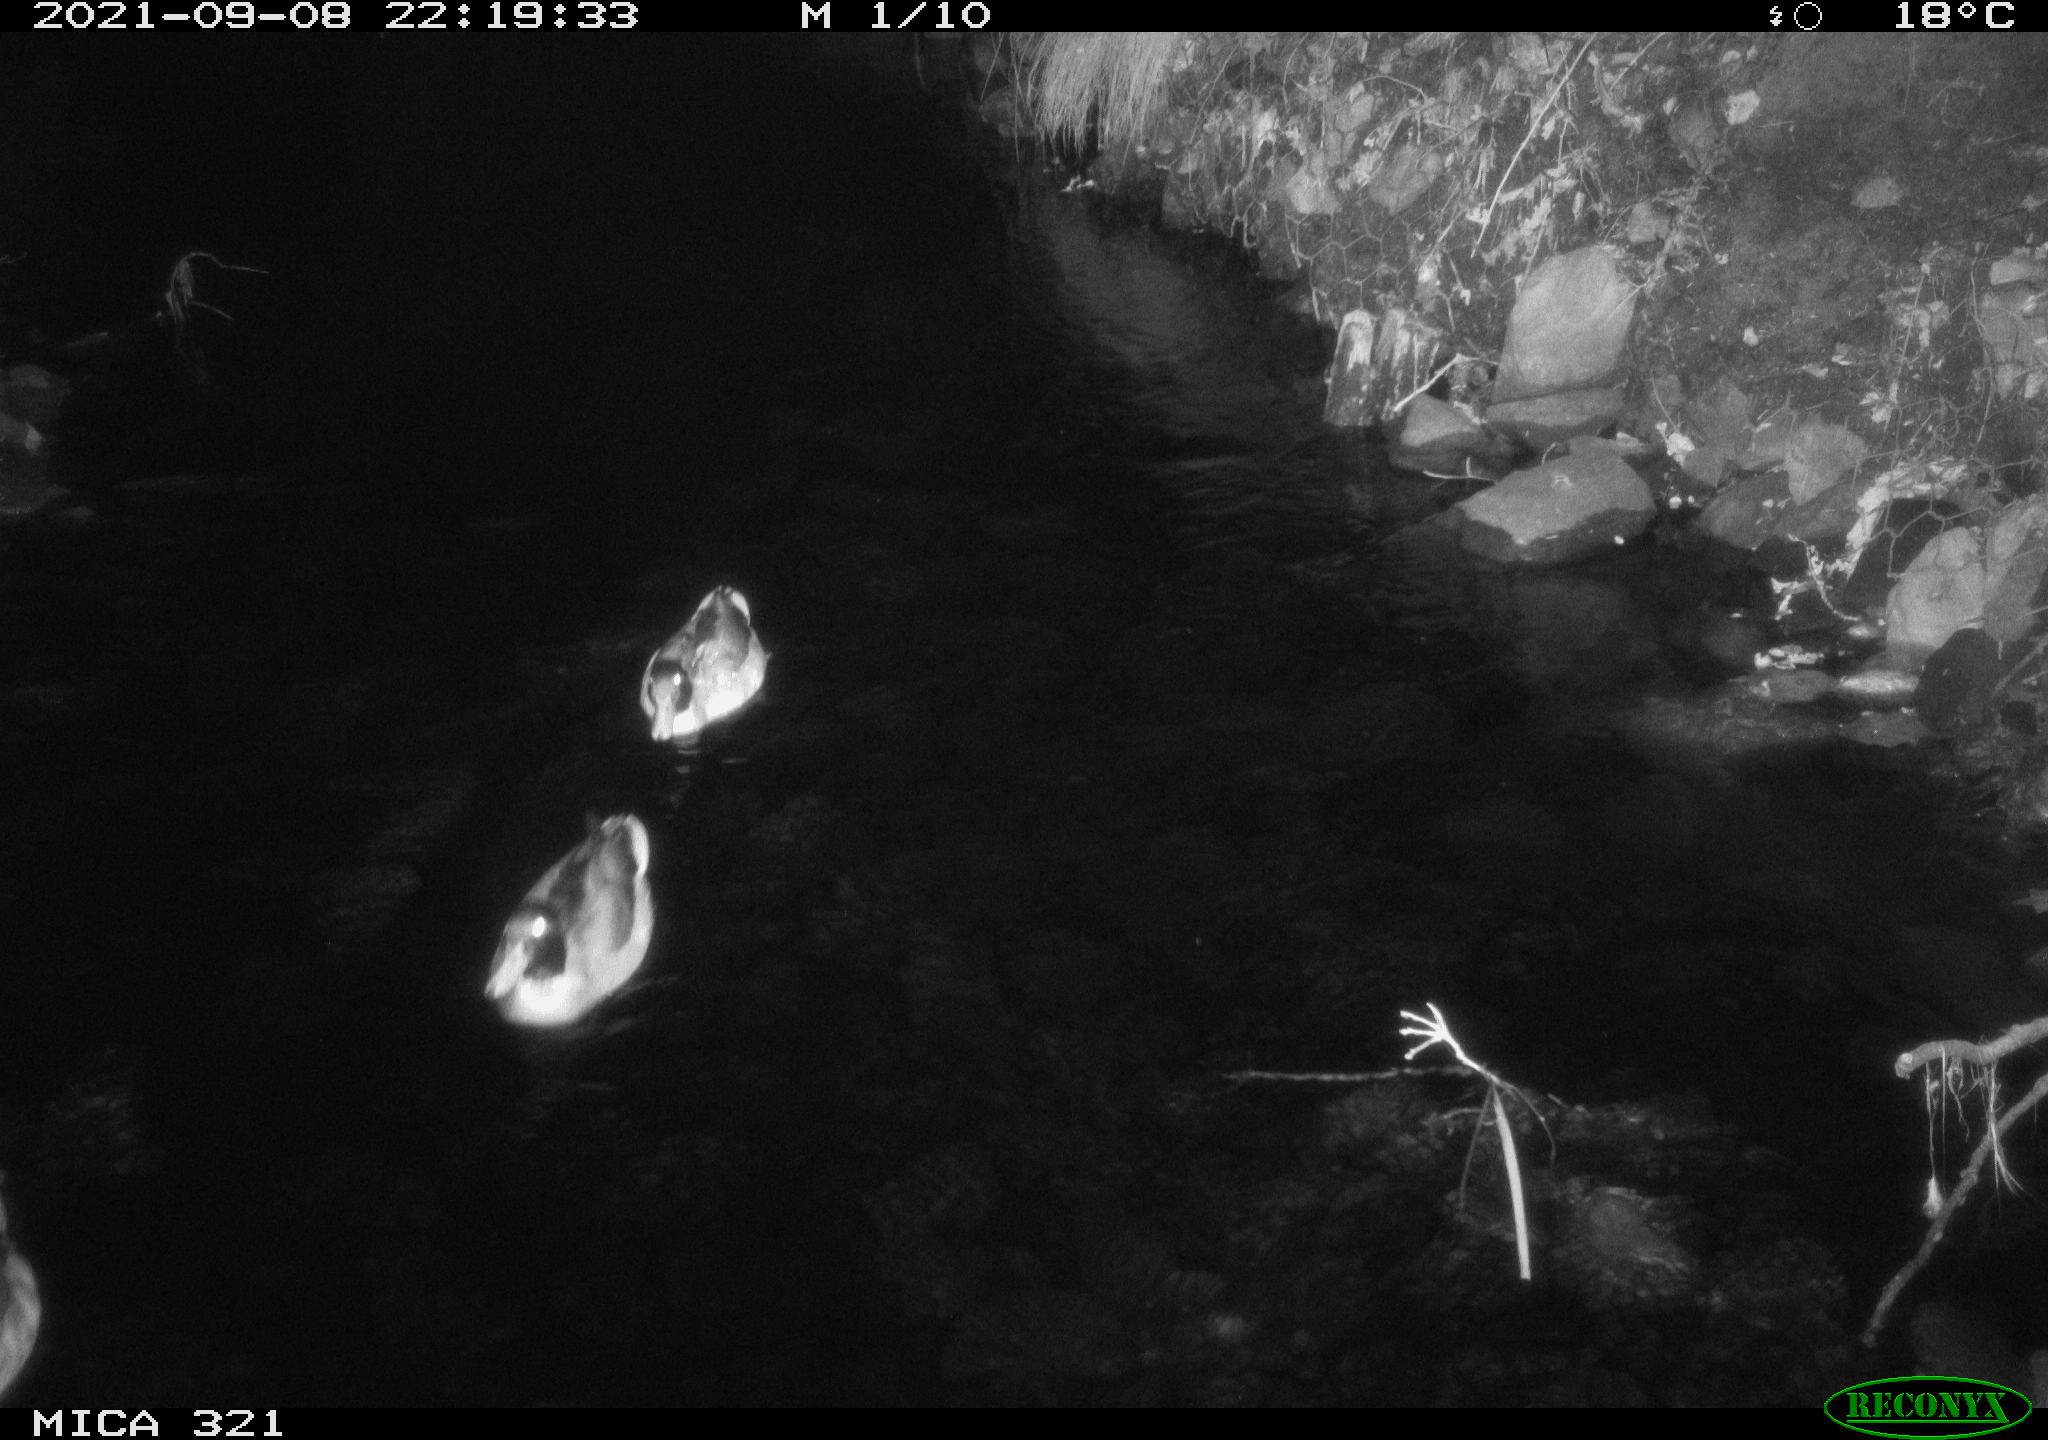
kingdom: Animalia
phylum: Chordata
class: Aves
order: Anseriformes
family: Anatidae
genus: Anas
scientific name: Anas platyrhynchos
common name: Mallard
